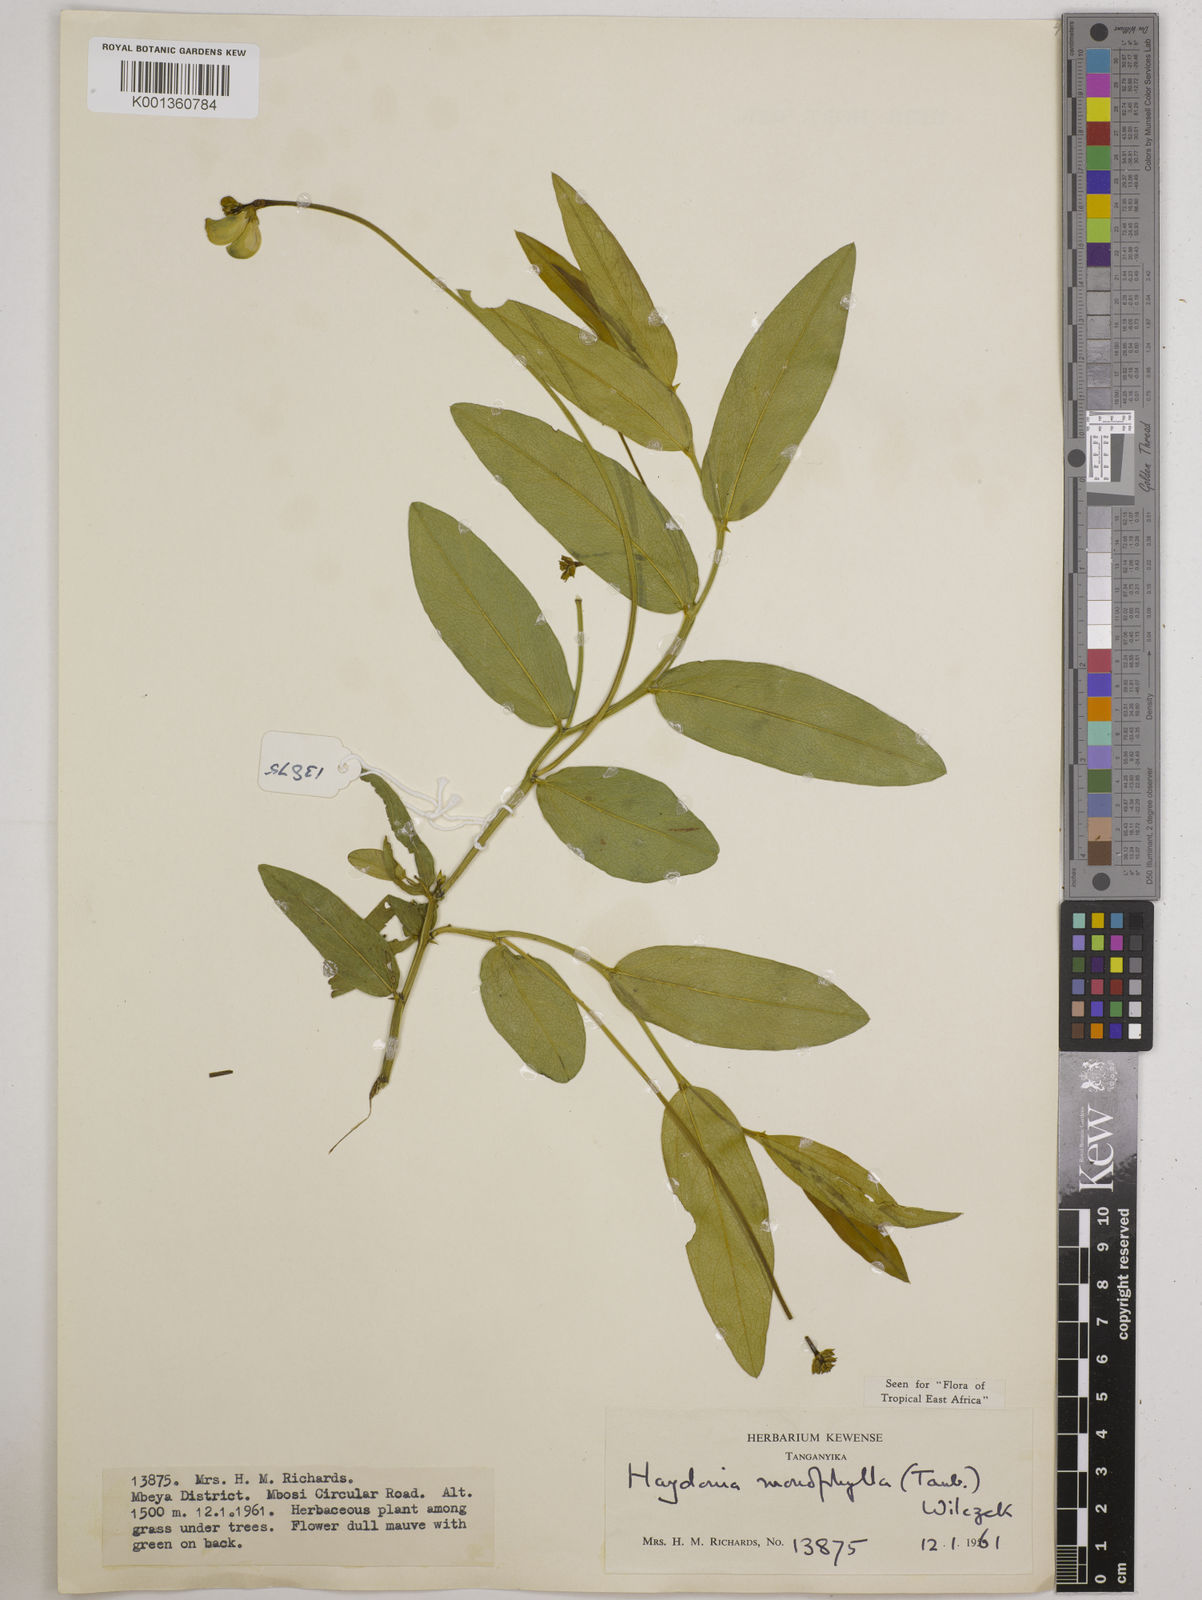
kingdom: Plantae
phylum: Tracheophyta
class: Magnoliopsida
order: Fabales
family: Fabaceae
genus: Vigna
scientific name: Vigna monophylla
